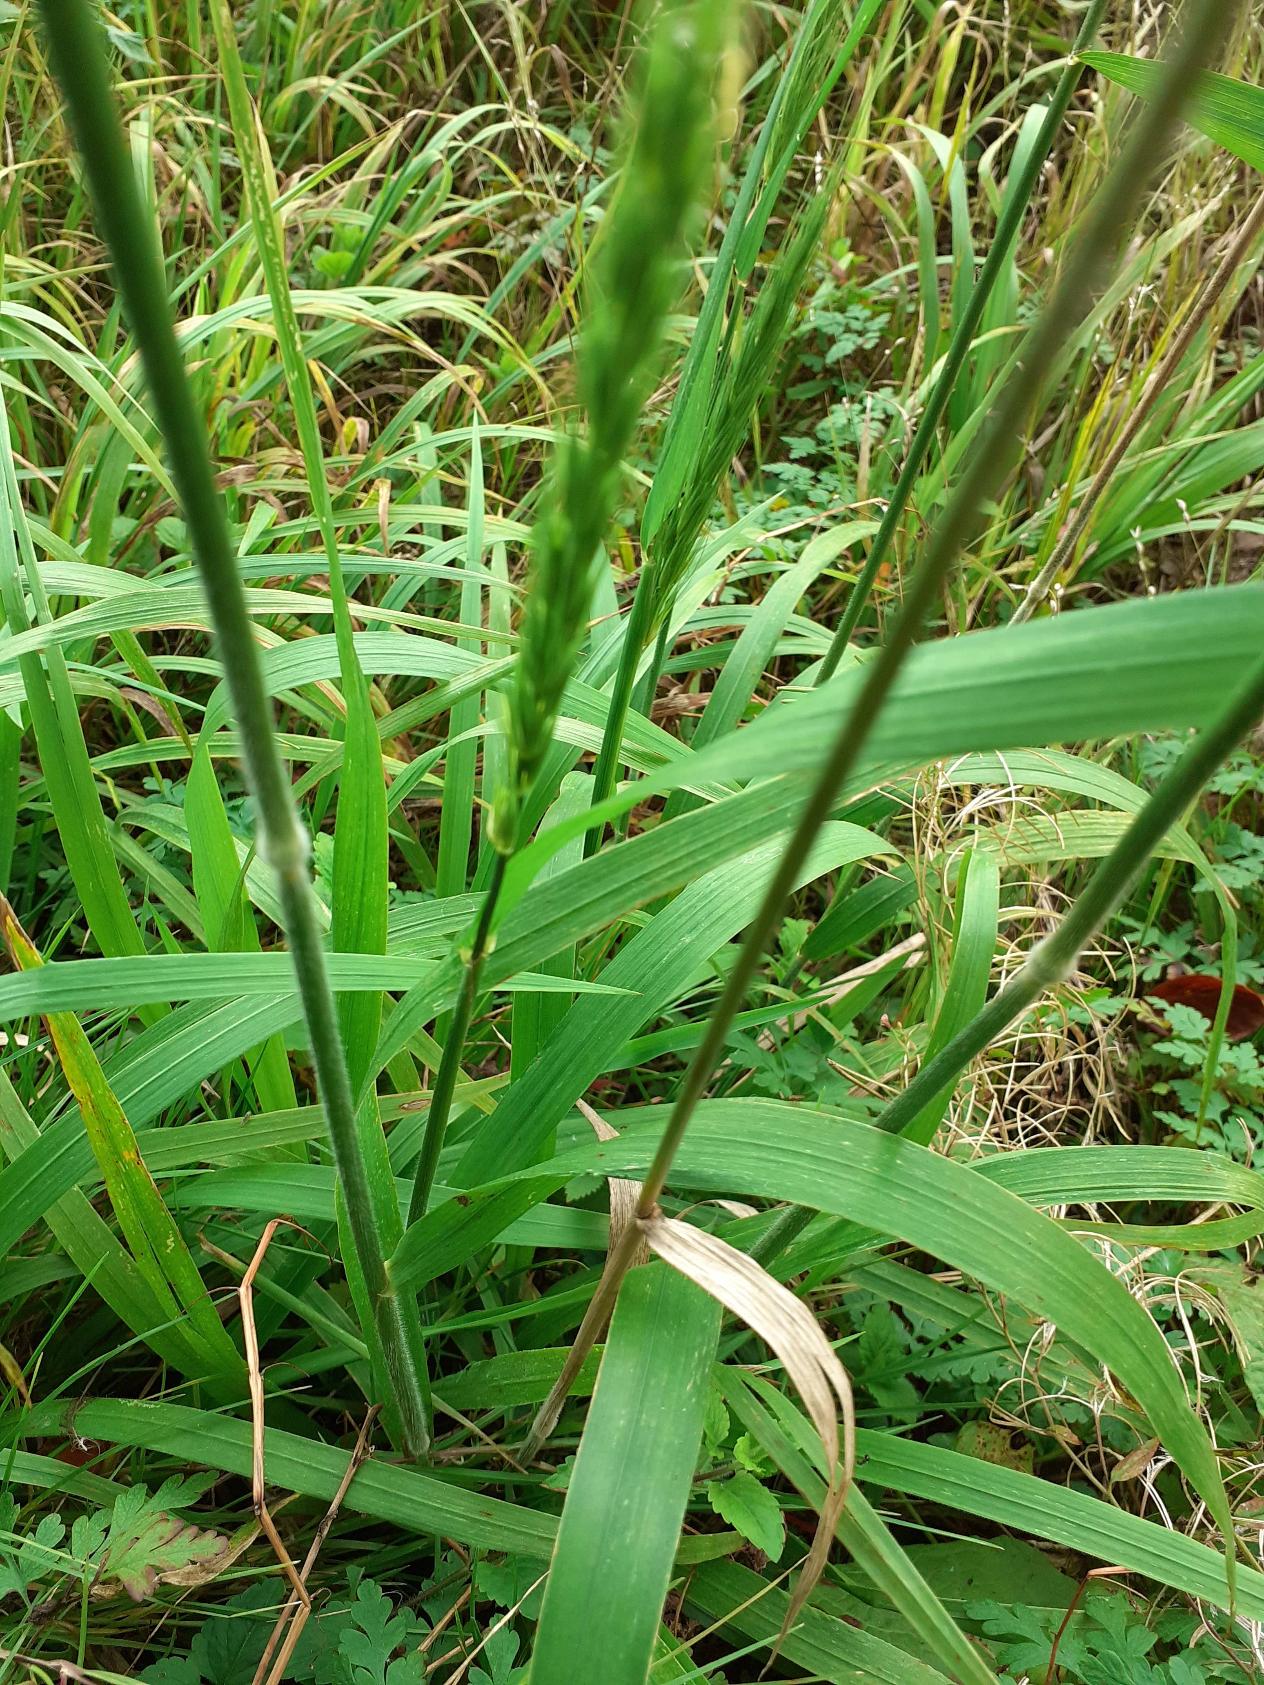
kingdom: Plantae
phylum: Tracheophyta
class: Liliopsida
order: Poales
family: Poaceae
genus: Hordelymus
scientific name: Hordelymus europaeus
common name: Skovbyg
